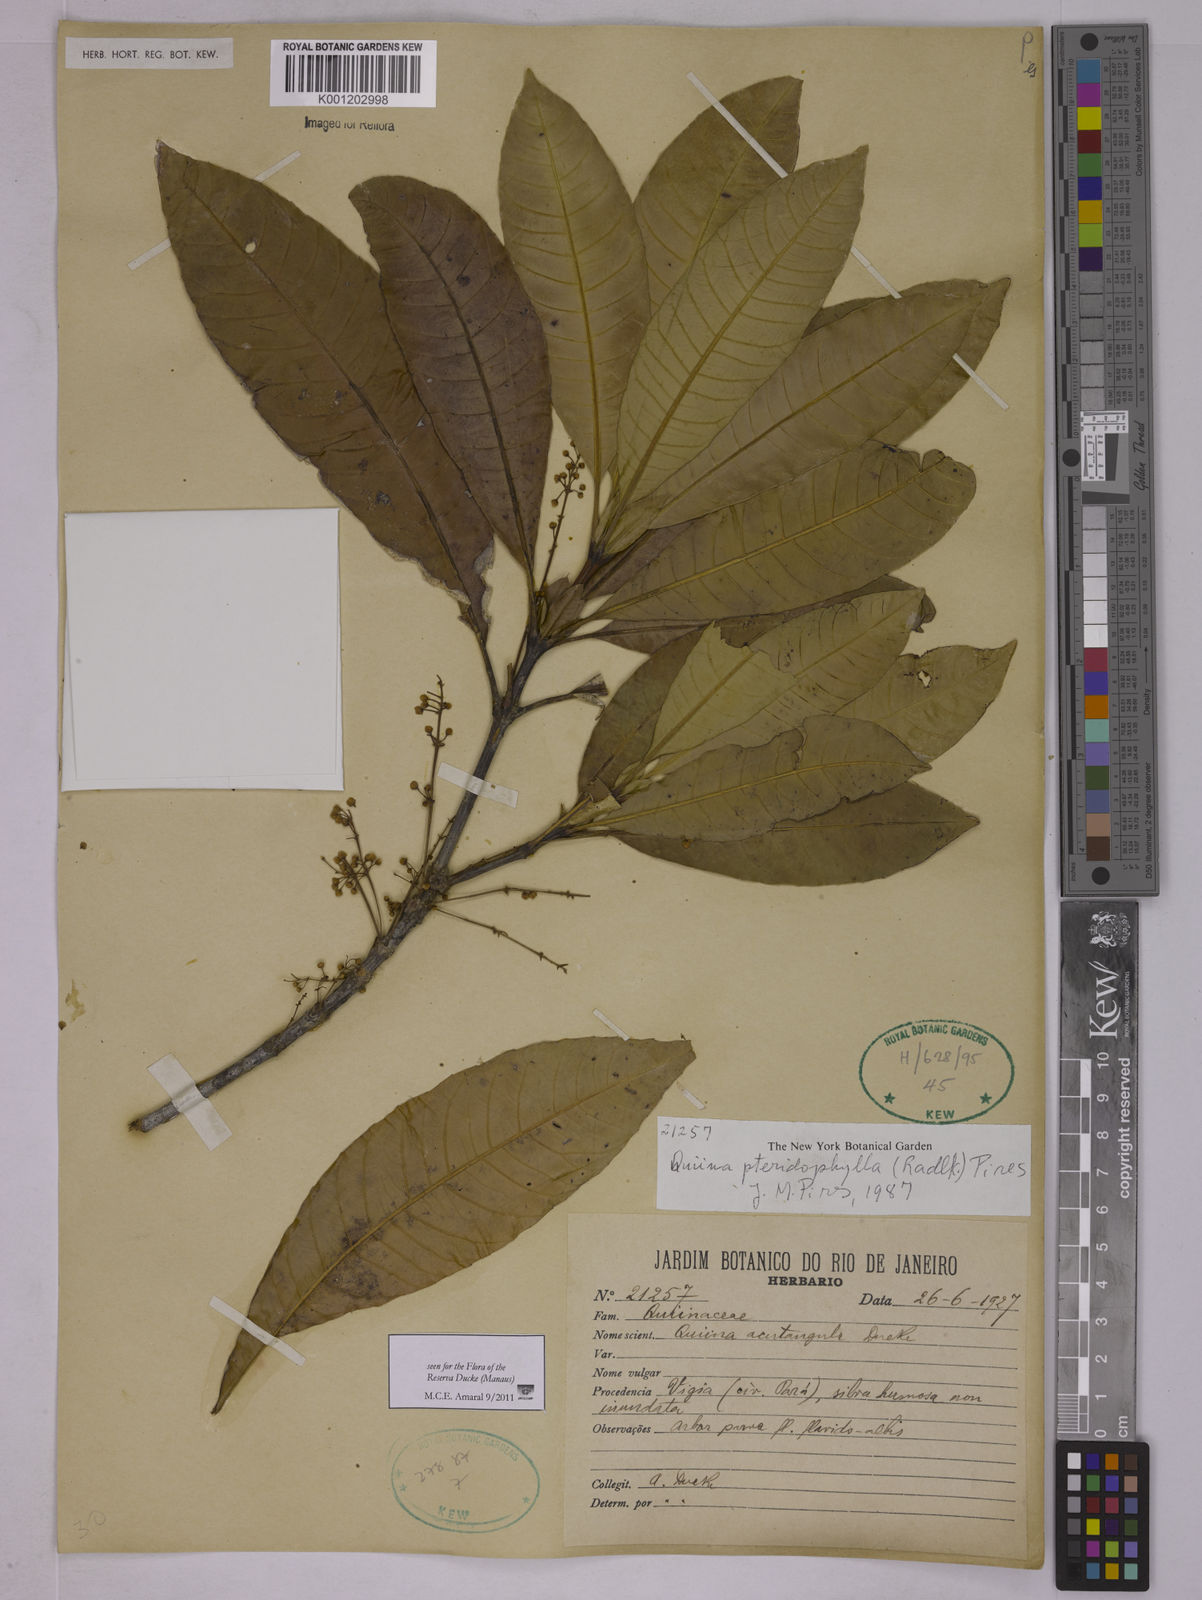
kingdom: Plantae
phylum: Tracheophyta
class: Magnoliopsida
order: Malpighiales
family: Quiinaceae
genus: Quiina
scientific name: Quiina pteridophylla
